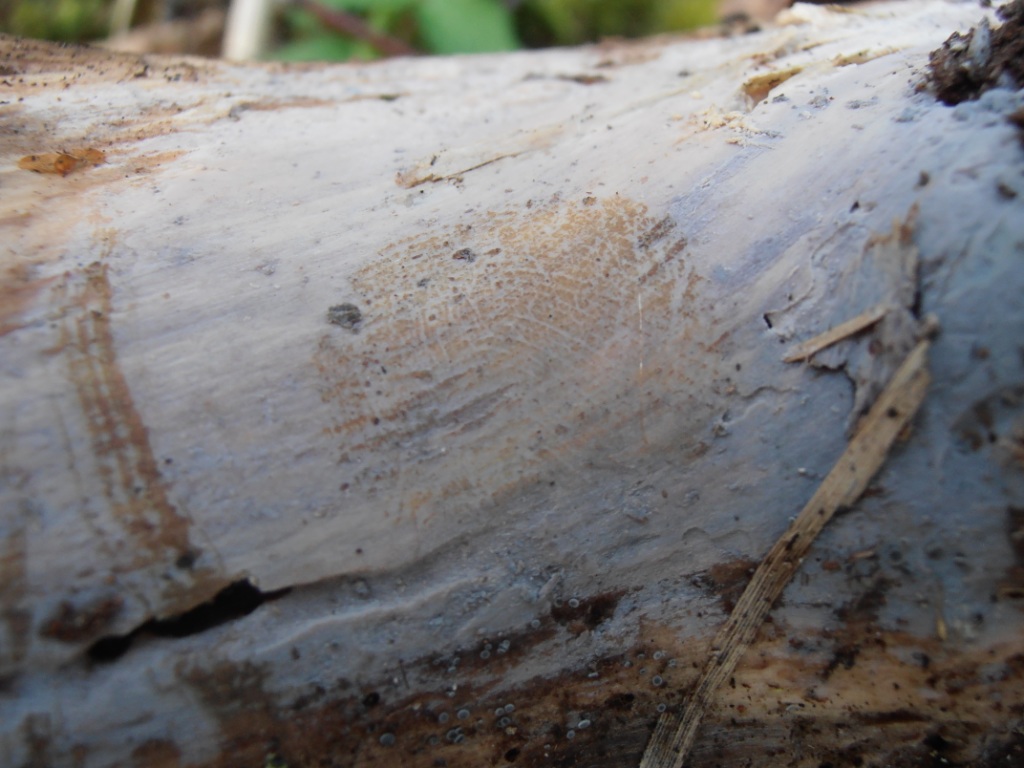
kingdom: Fungi
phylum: Basidiomycota
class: Agaricomycetes
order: Auriculariales
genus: Basidiodendron
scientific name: Basidiodendron eyrei
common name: småsporet rækkebævresvamp
